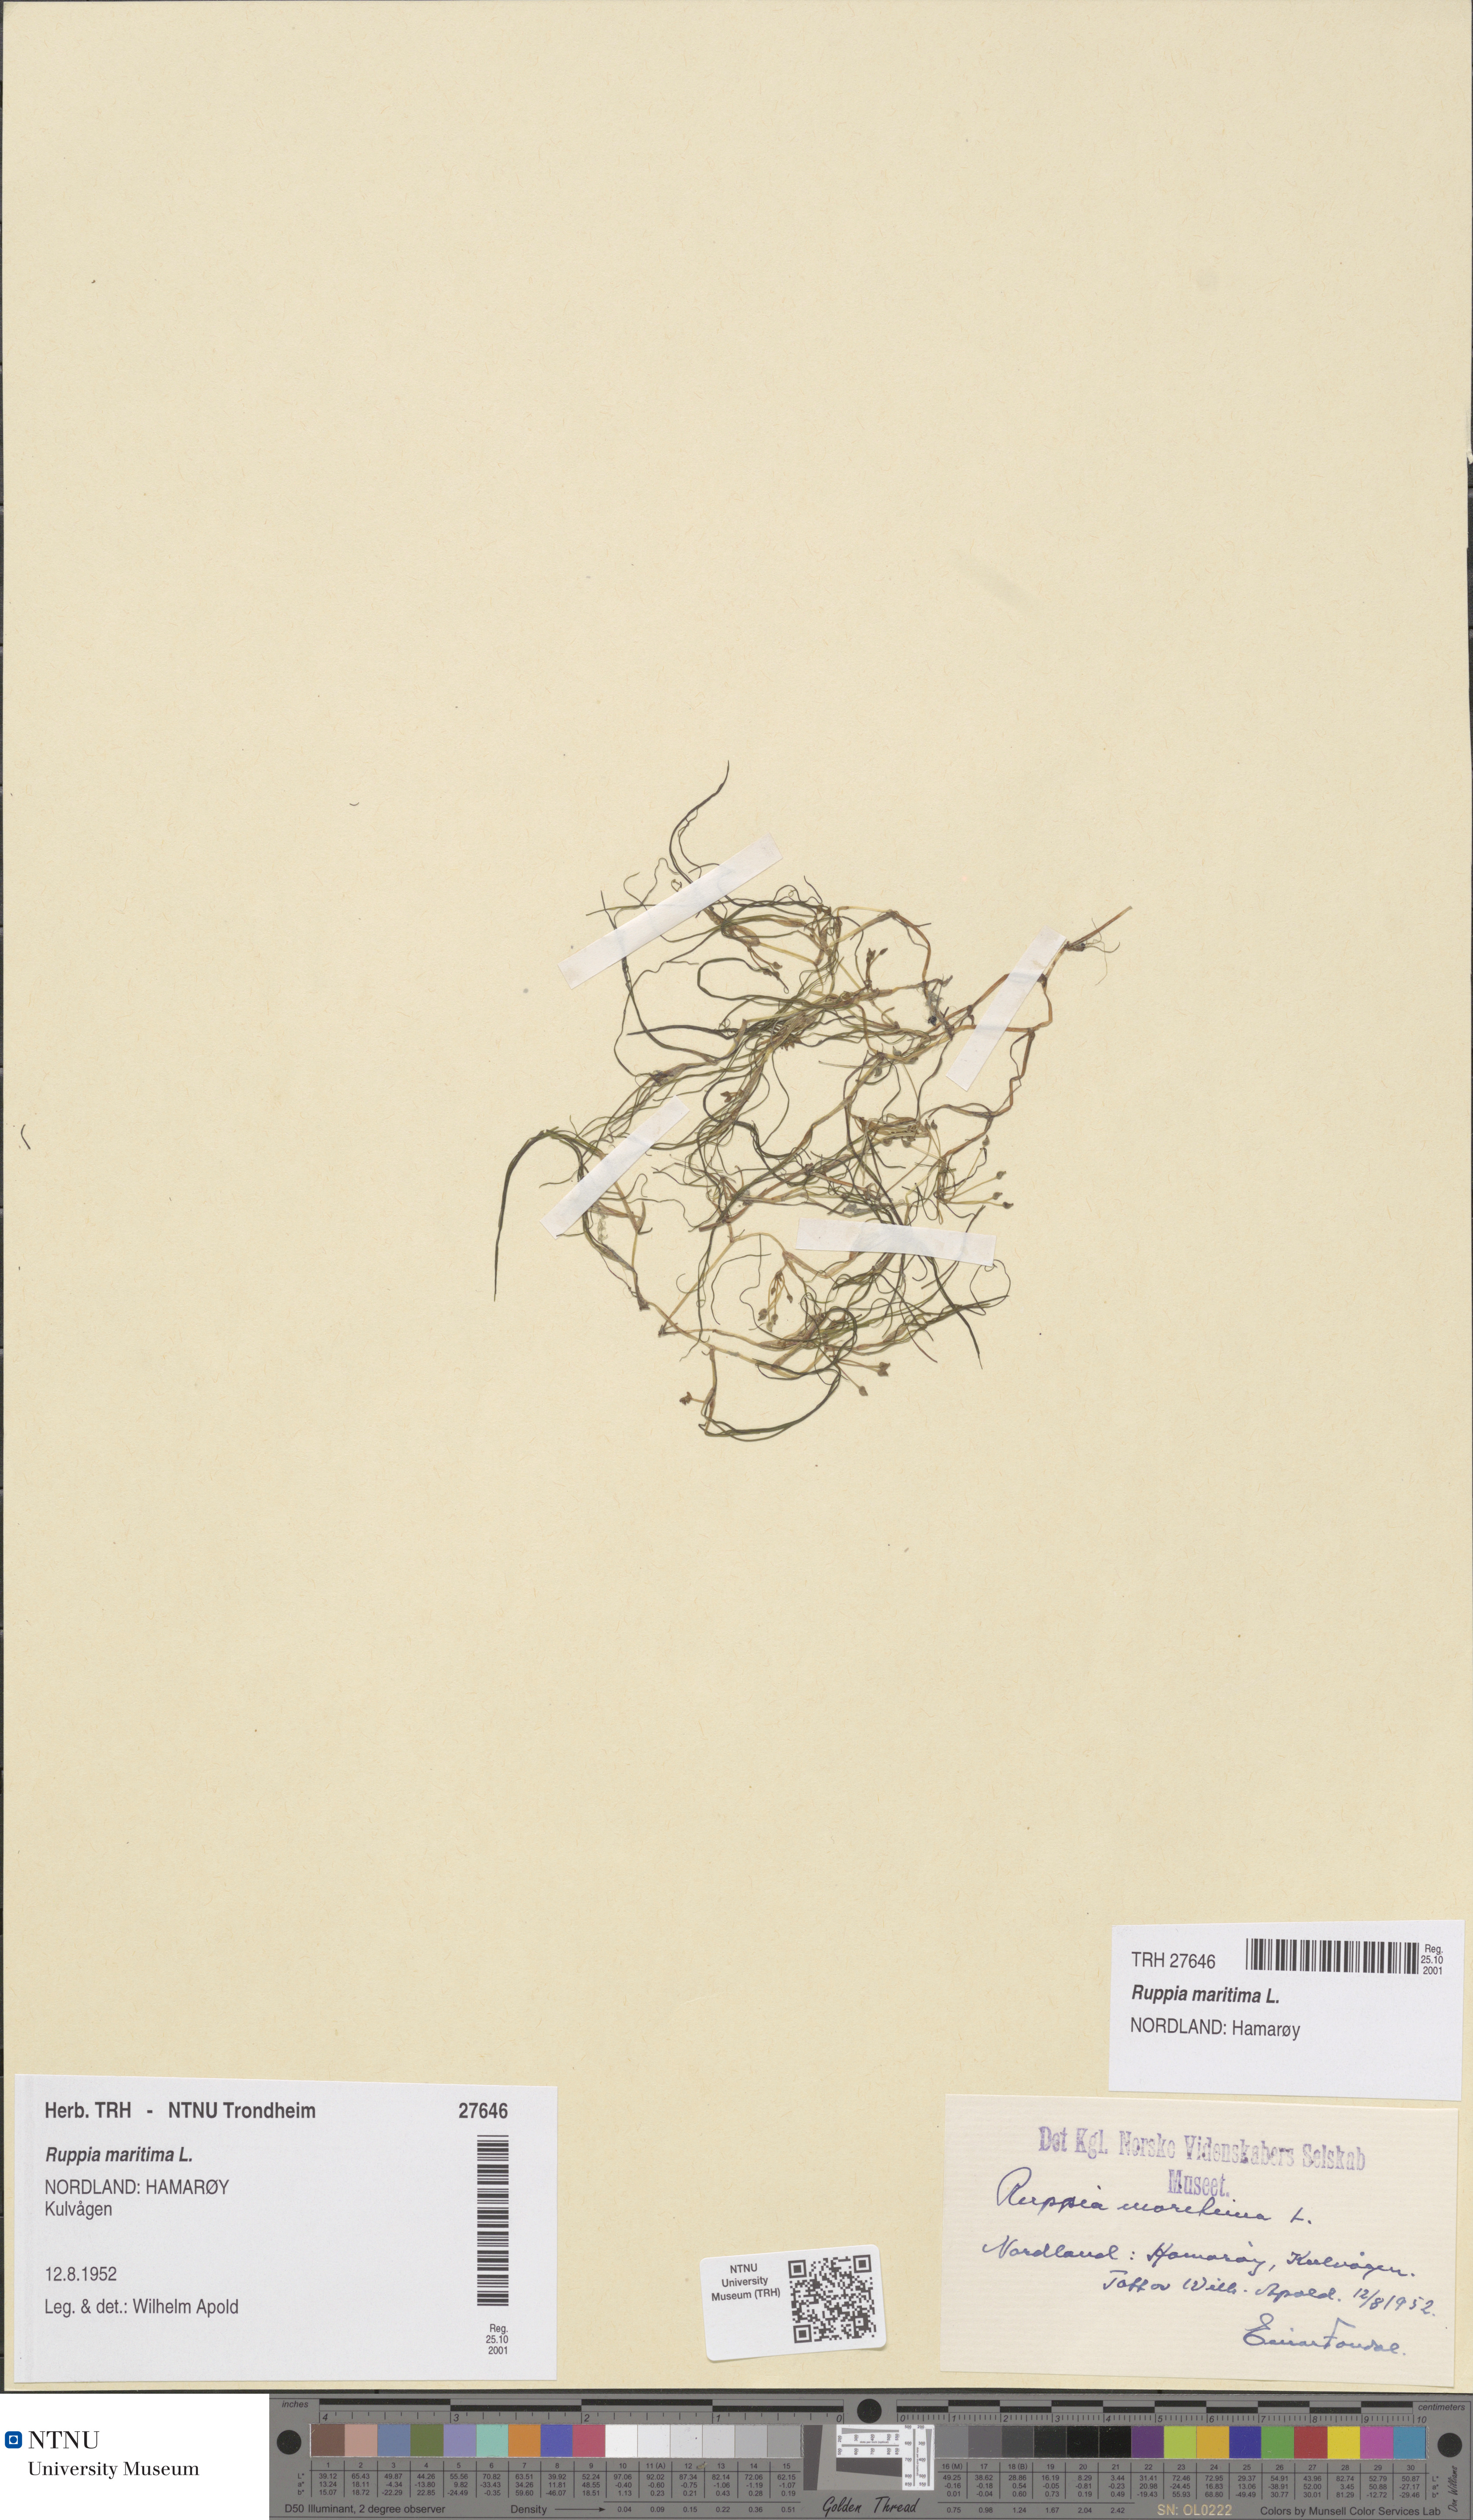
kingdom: Plantae
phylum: Tracheophyta
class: Liliopsida
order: Alismatales
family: Ruppiaceae
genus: Ruppia
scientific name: Ruppia maritima
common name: Beaked tasselweed
